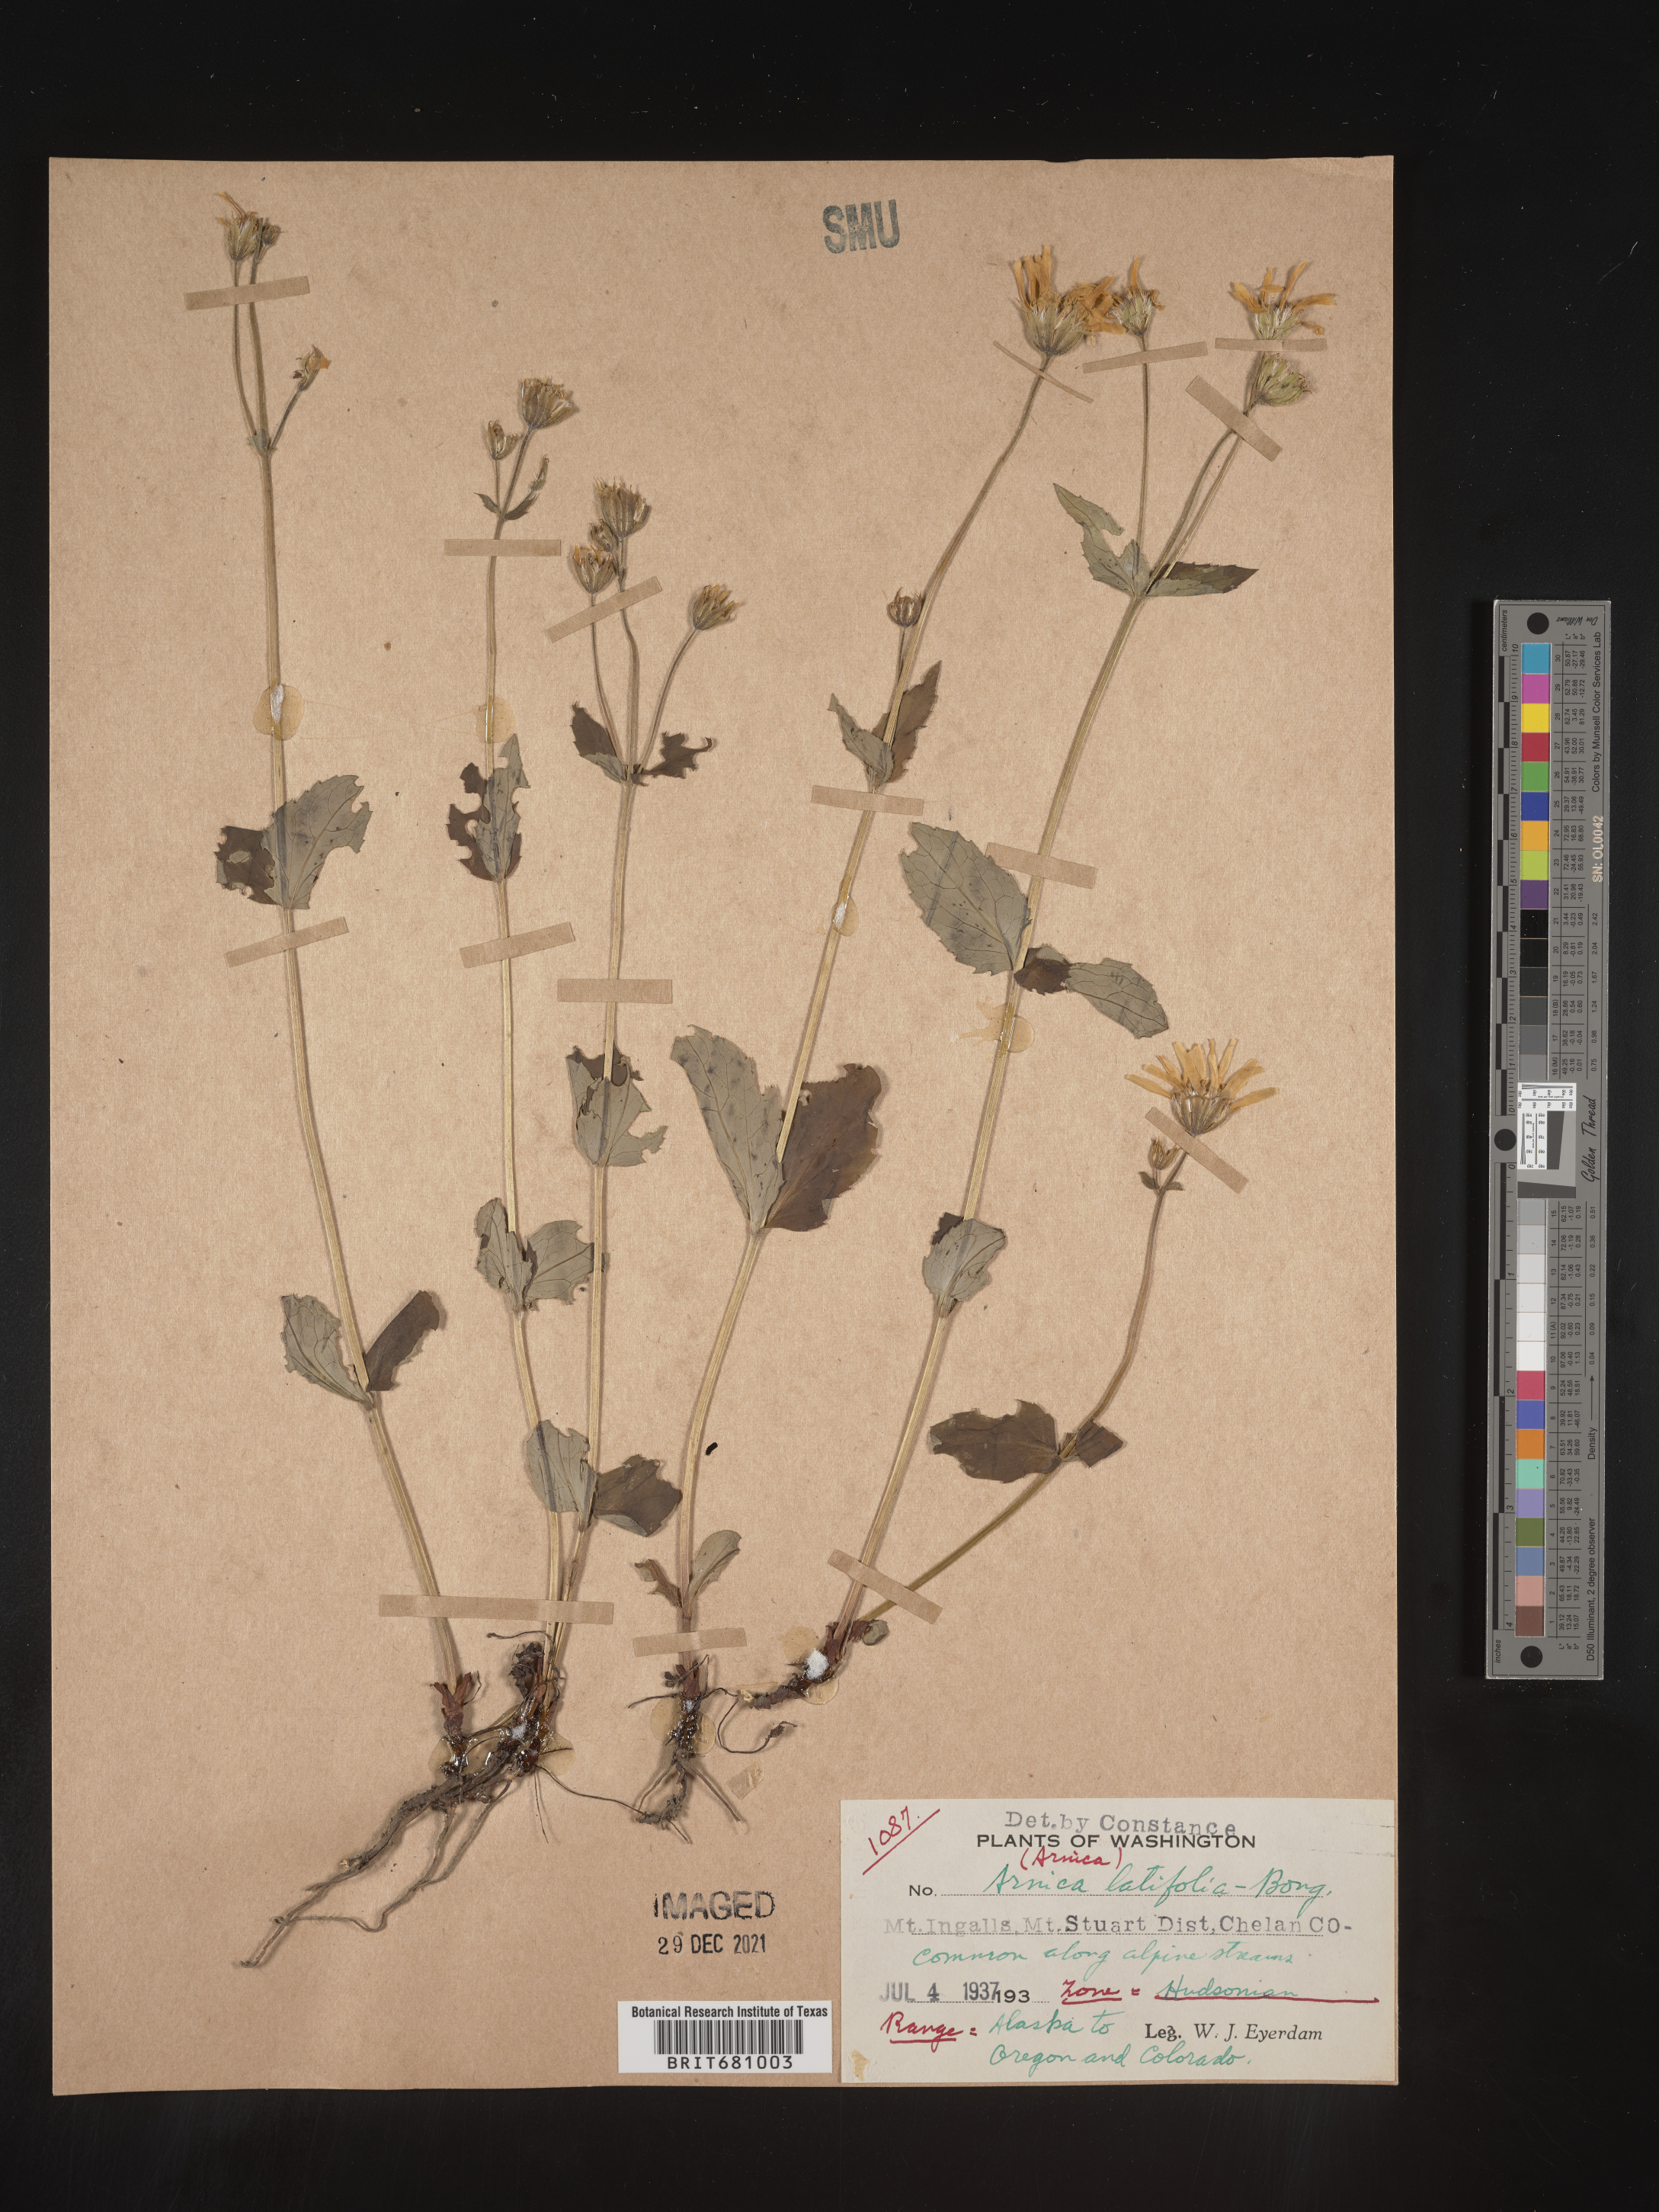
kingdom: Plantae
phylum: Tracheophyta
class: Magnoliopsida
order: Asterales
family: Asteraceae
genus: Arnica
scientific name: Arnica latifolia
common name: Arnica
